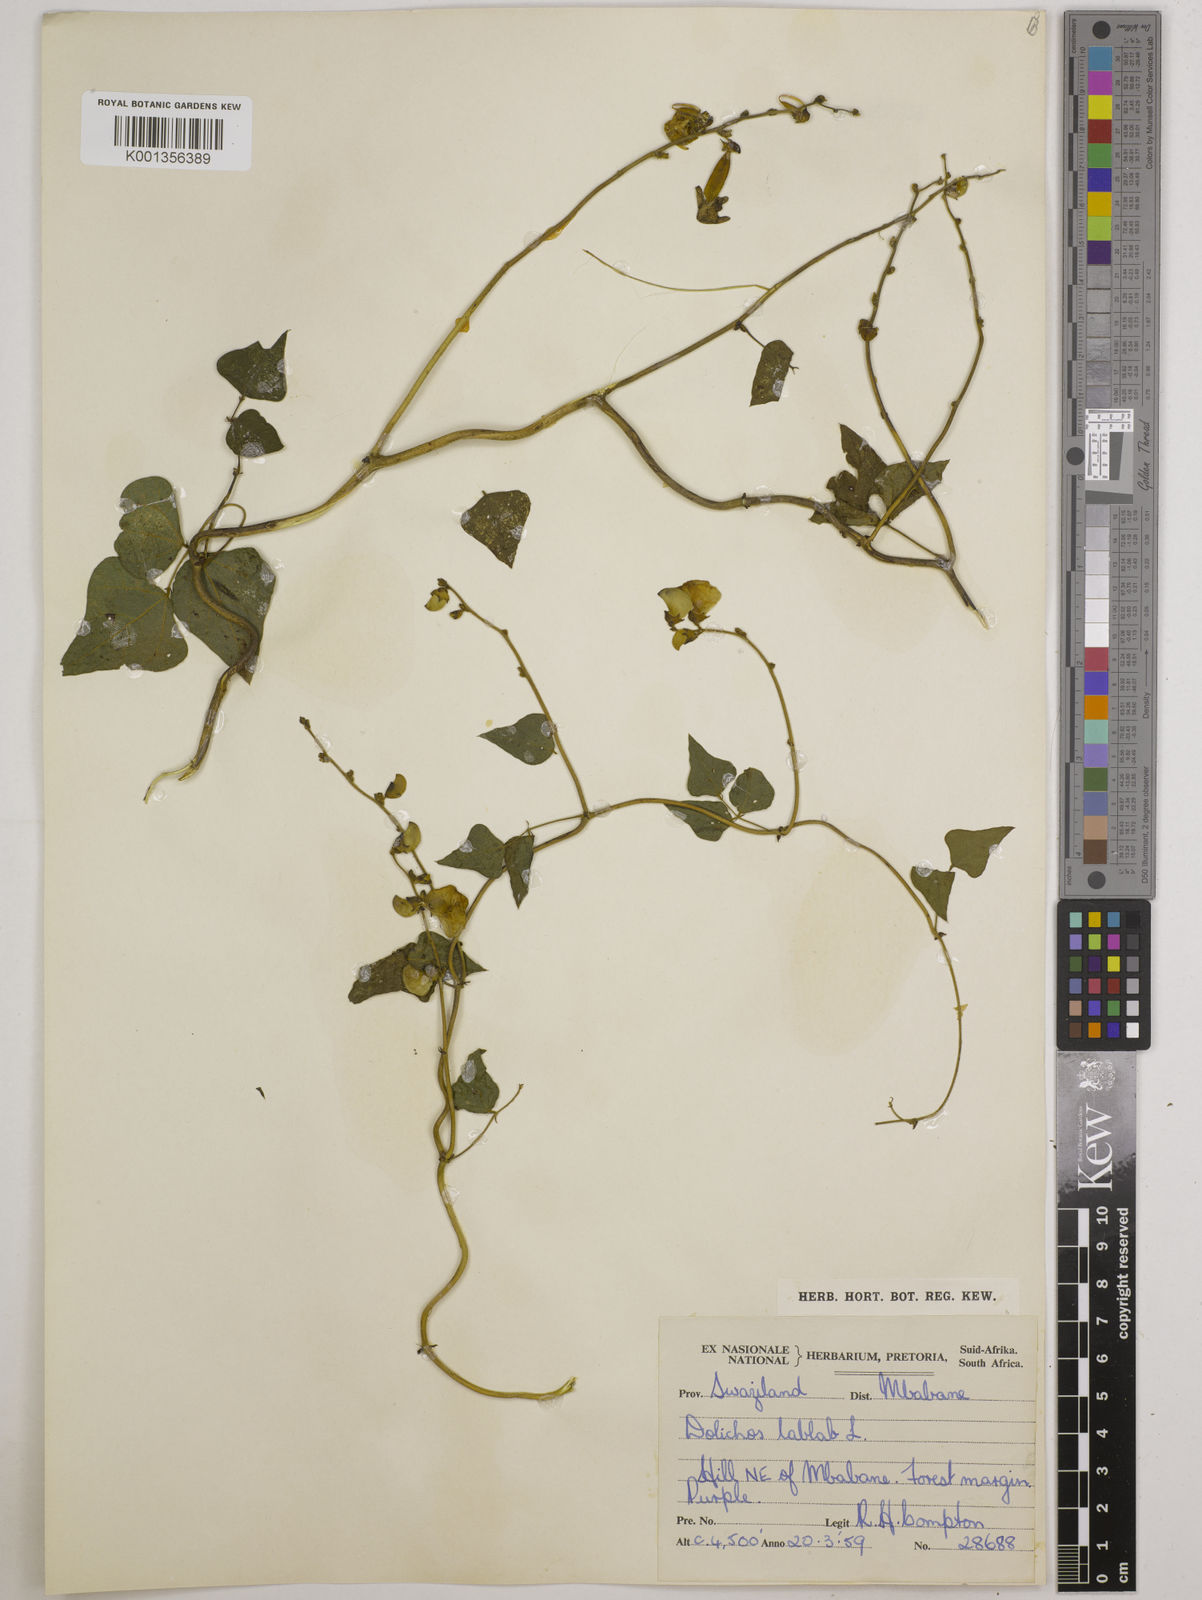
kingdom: Plantae
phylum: Tracheophyta
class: Magnoliopsida
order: Fabales
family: Fabaceae
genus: Lablab
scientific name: Lablab purpureus
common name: Lablab-bean
